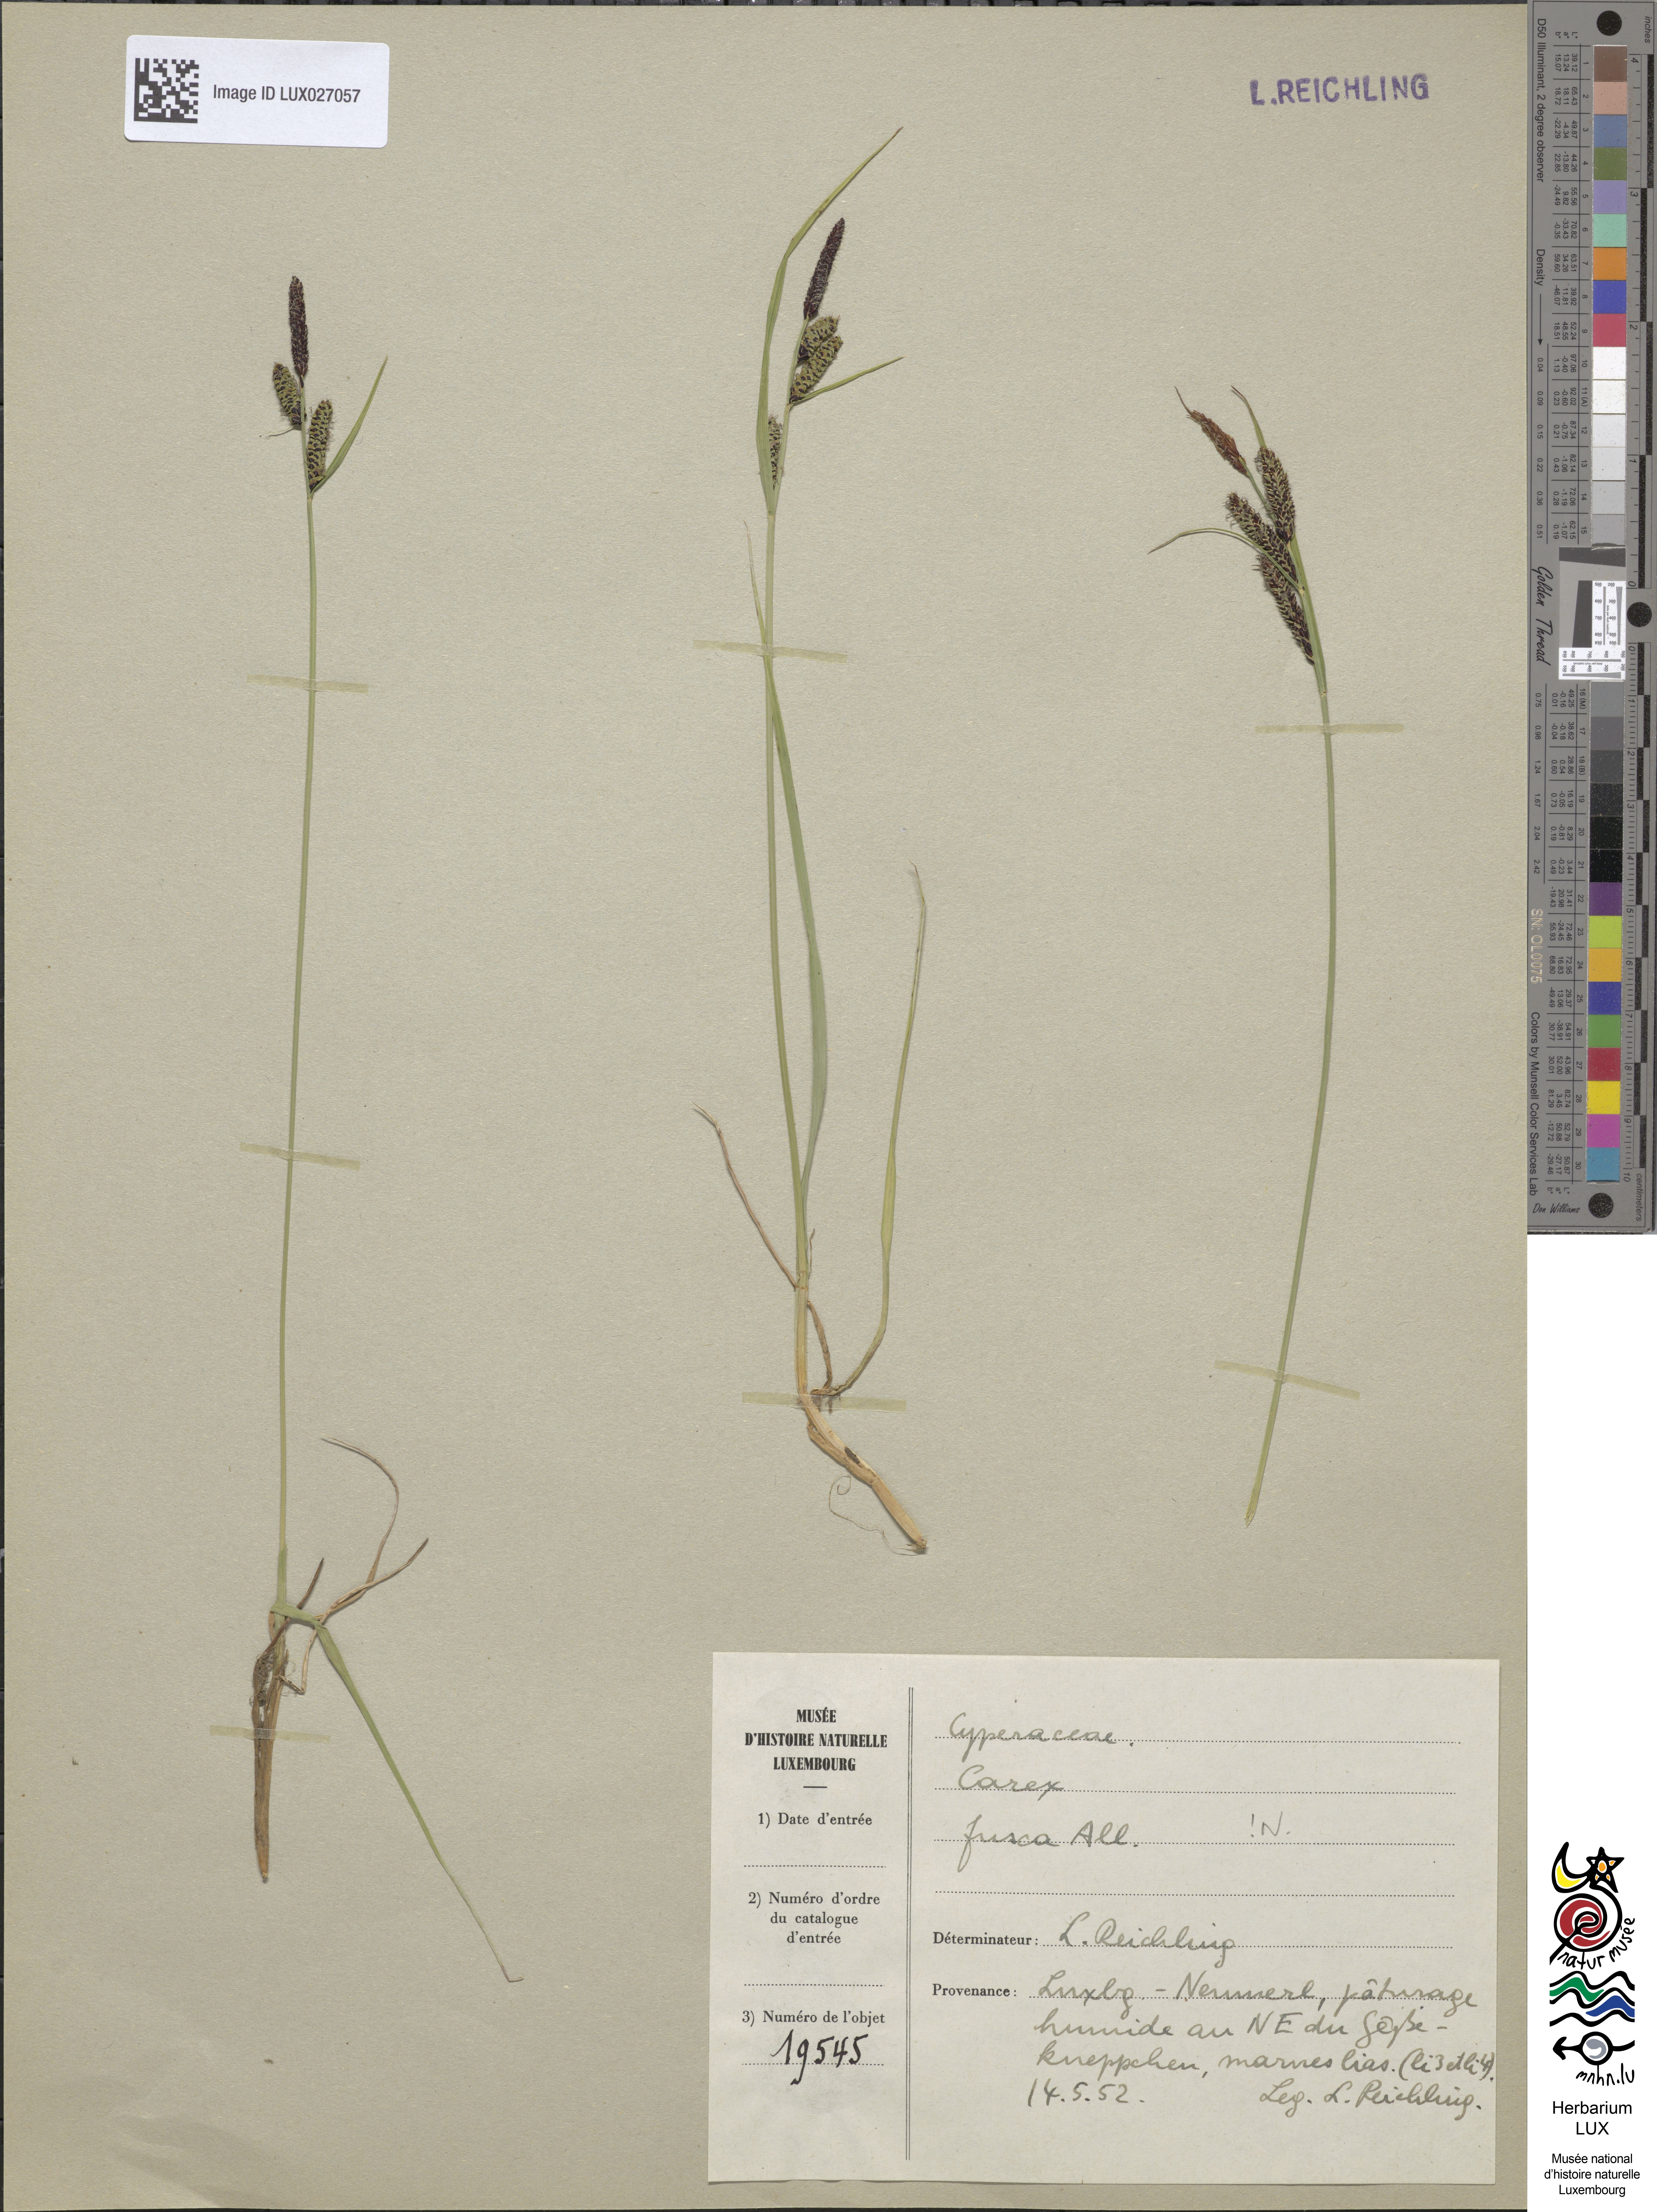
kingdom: Plantae
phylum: Tracheophyta
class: Liliopsida
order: Poales
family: Cyperaceae
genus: Carex
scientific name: Carex nigra
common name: Common sedge
